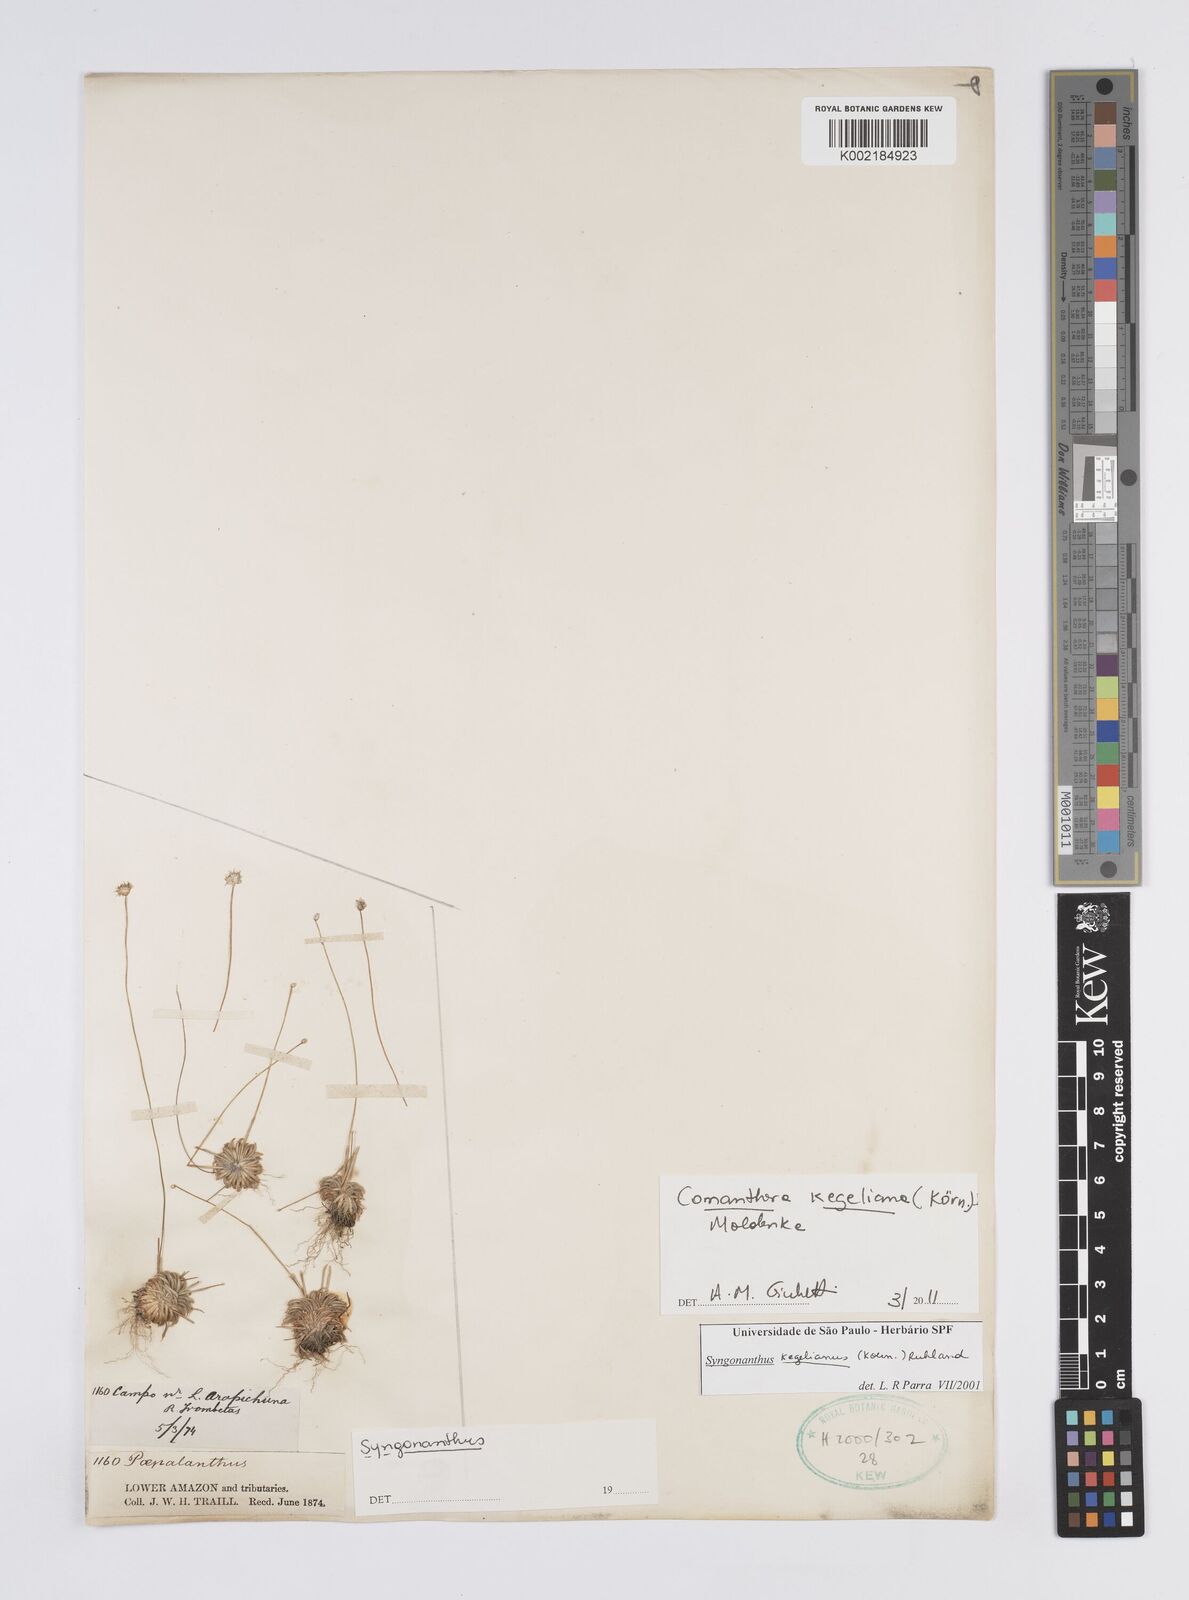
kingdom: Plantae
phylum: Tracheophyta
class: Liliopsida
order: Poales
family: Eriocaulaceae
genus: Comanthera
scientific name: Comanthera kegeliana
